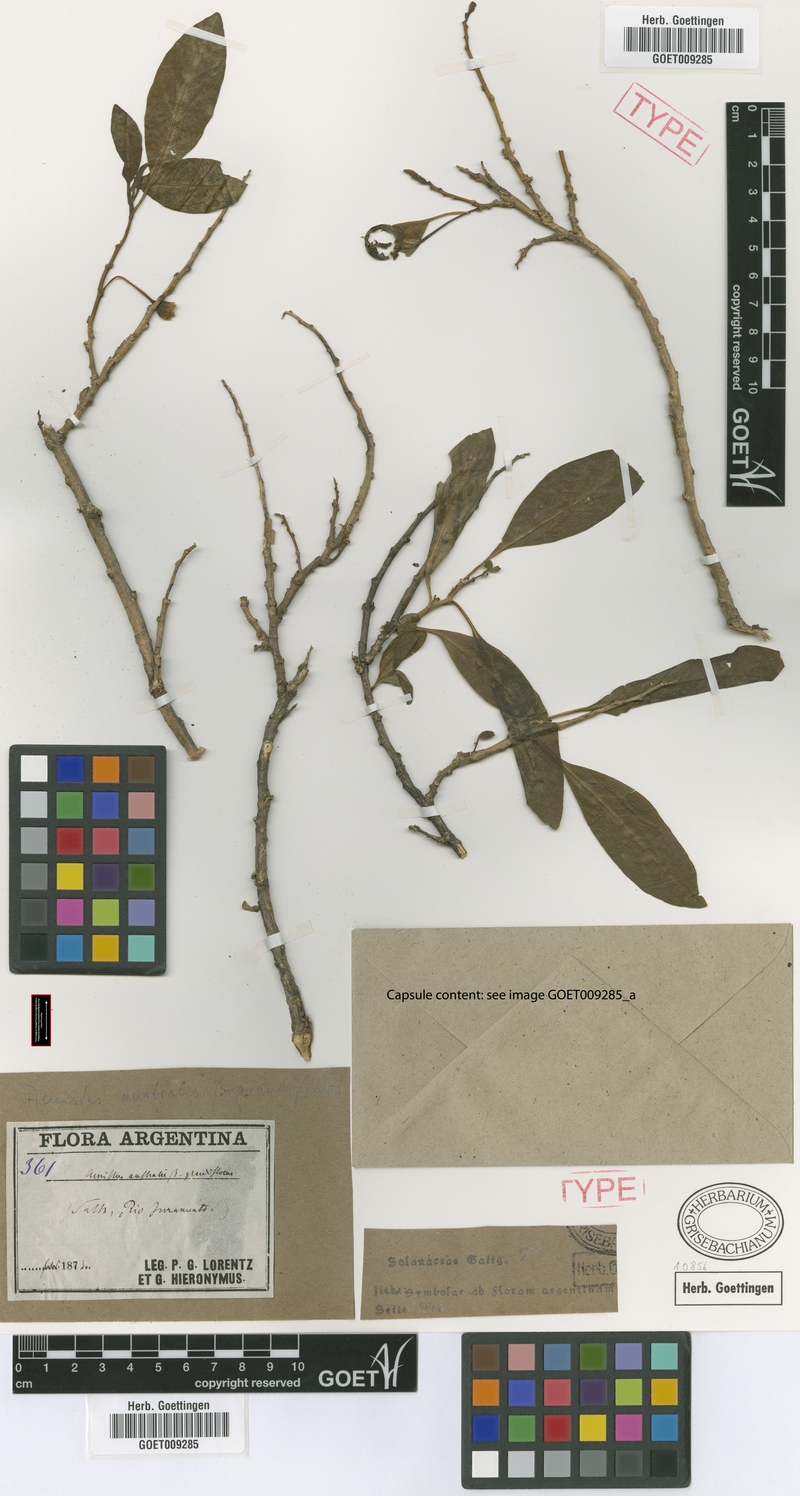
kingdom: Plantae
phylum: Tracheophyta
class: Magnoliopsida
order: Solanales
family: Solanaceae
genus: Eriolarynx
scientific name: Eriolarynx australis
